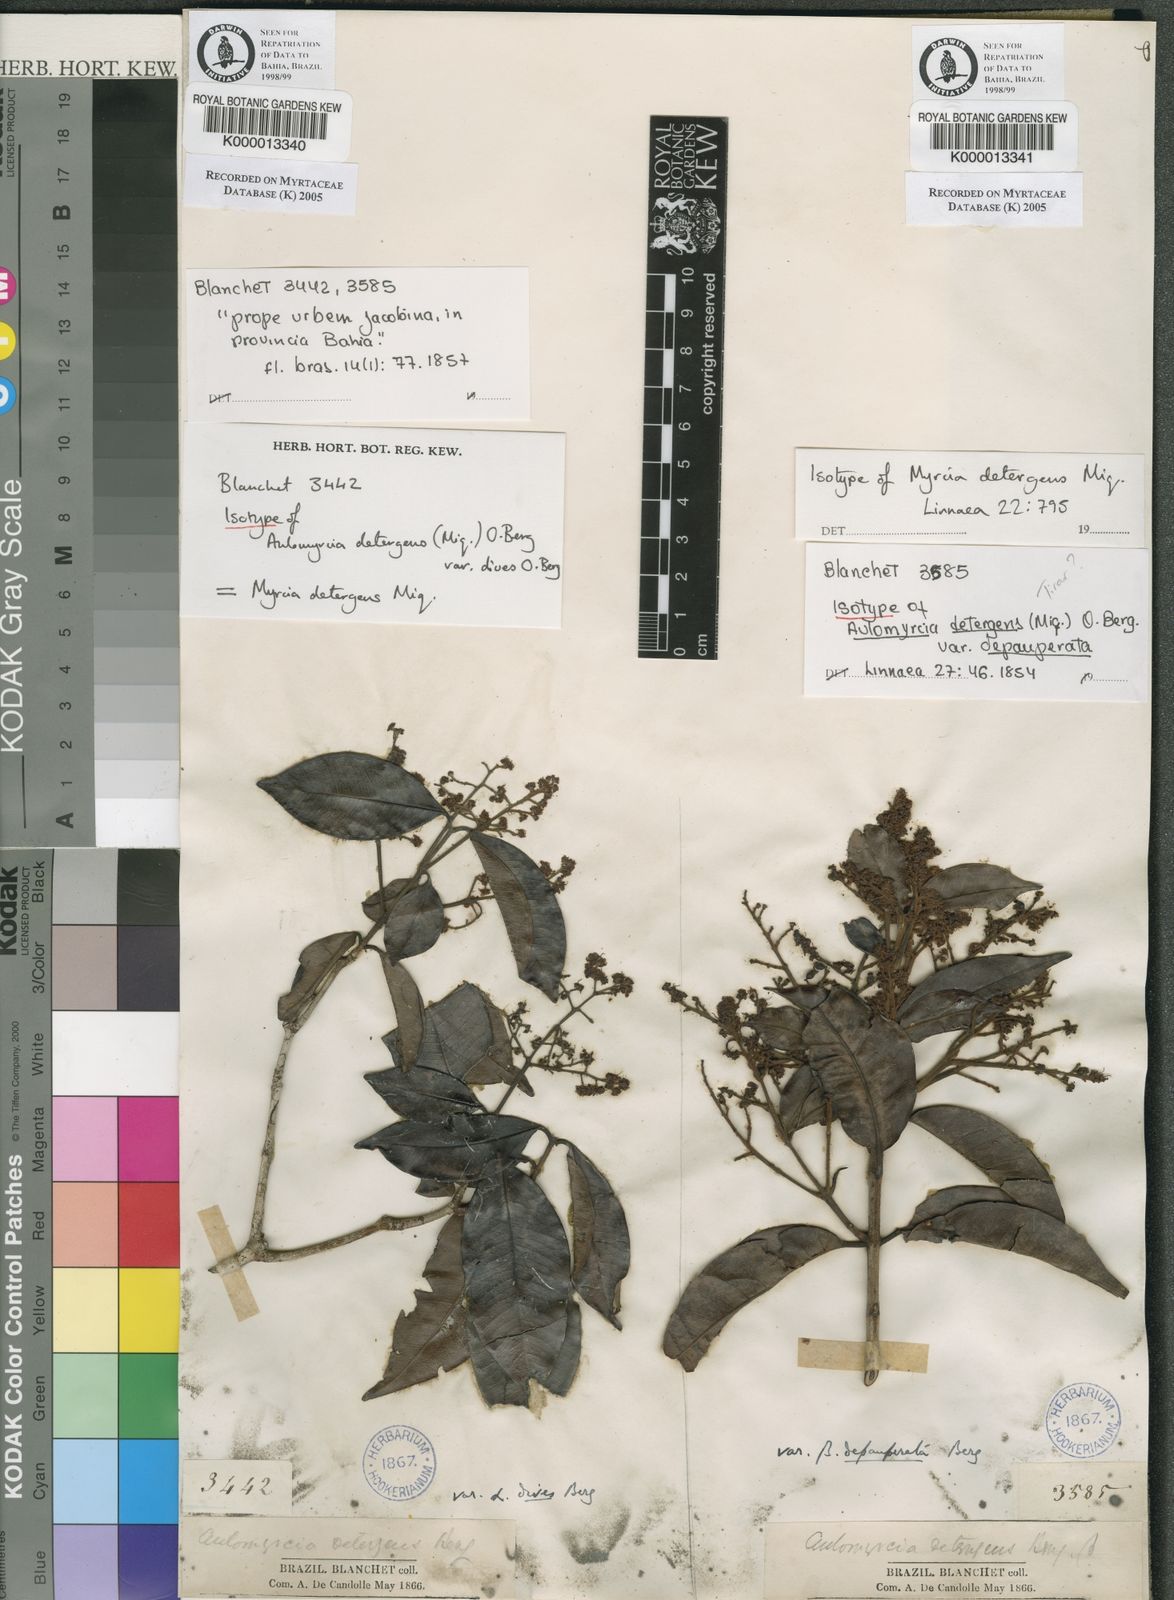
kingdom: Plantae
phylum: Tracheophyta
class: Magnoliopsida
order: Myrtales
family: Myrtaceae
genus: Myrcia
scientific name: Myrcia amazonica
